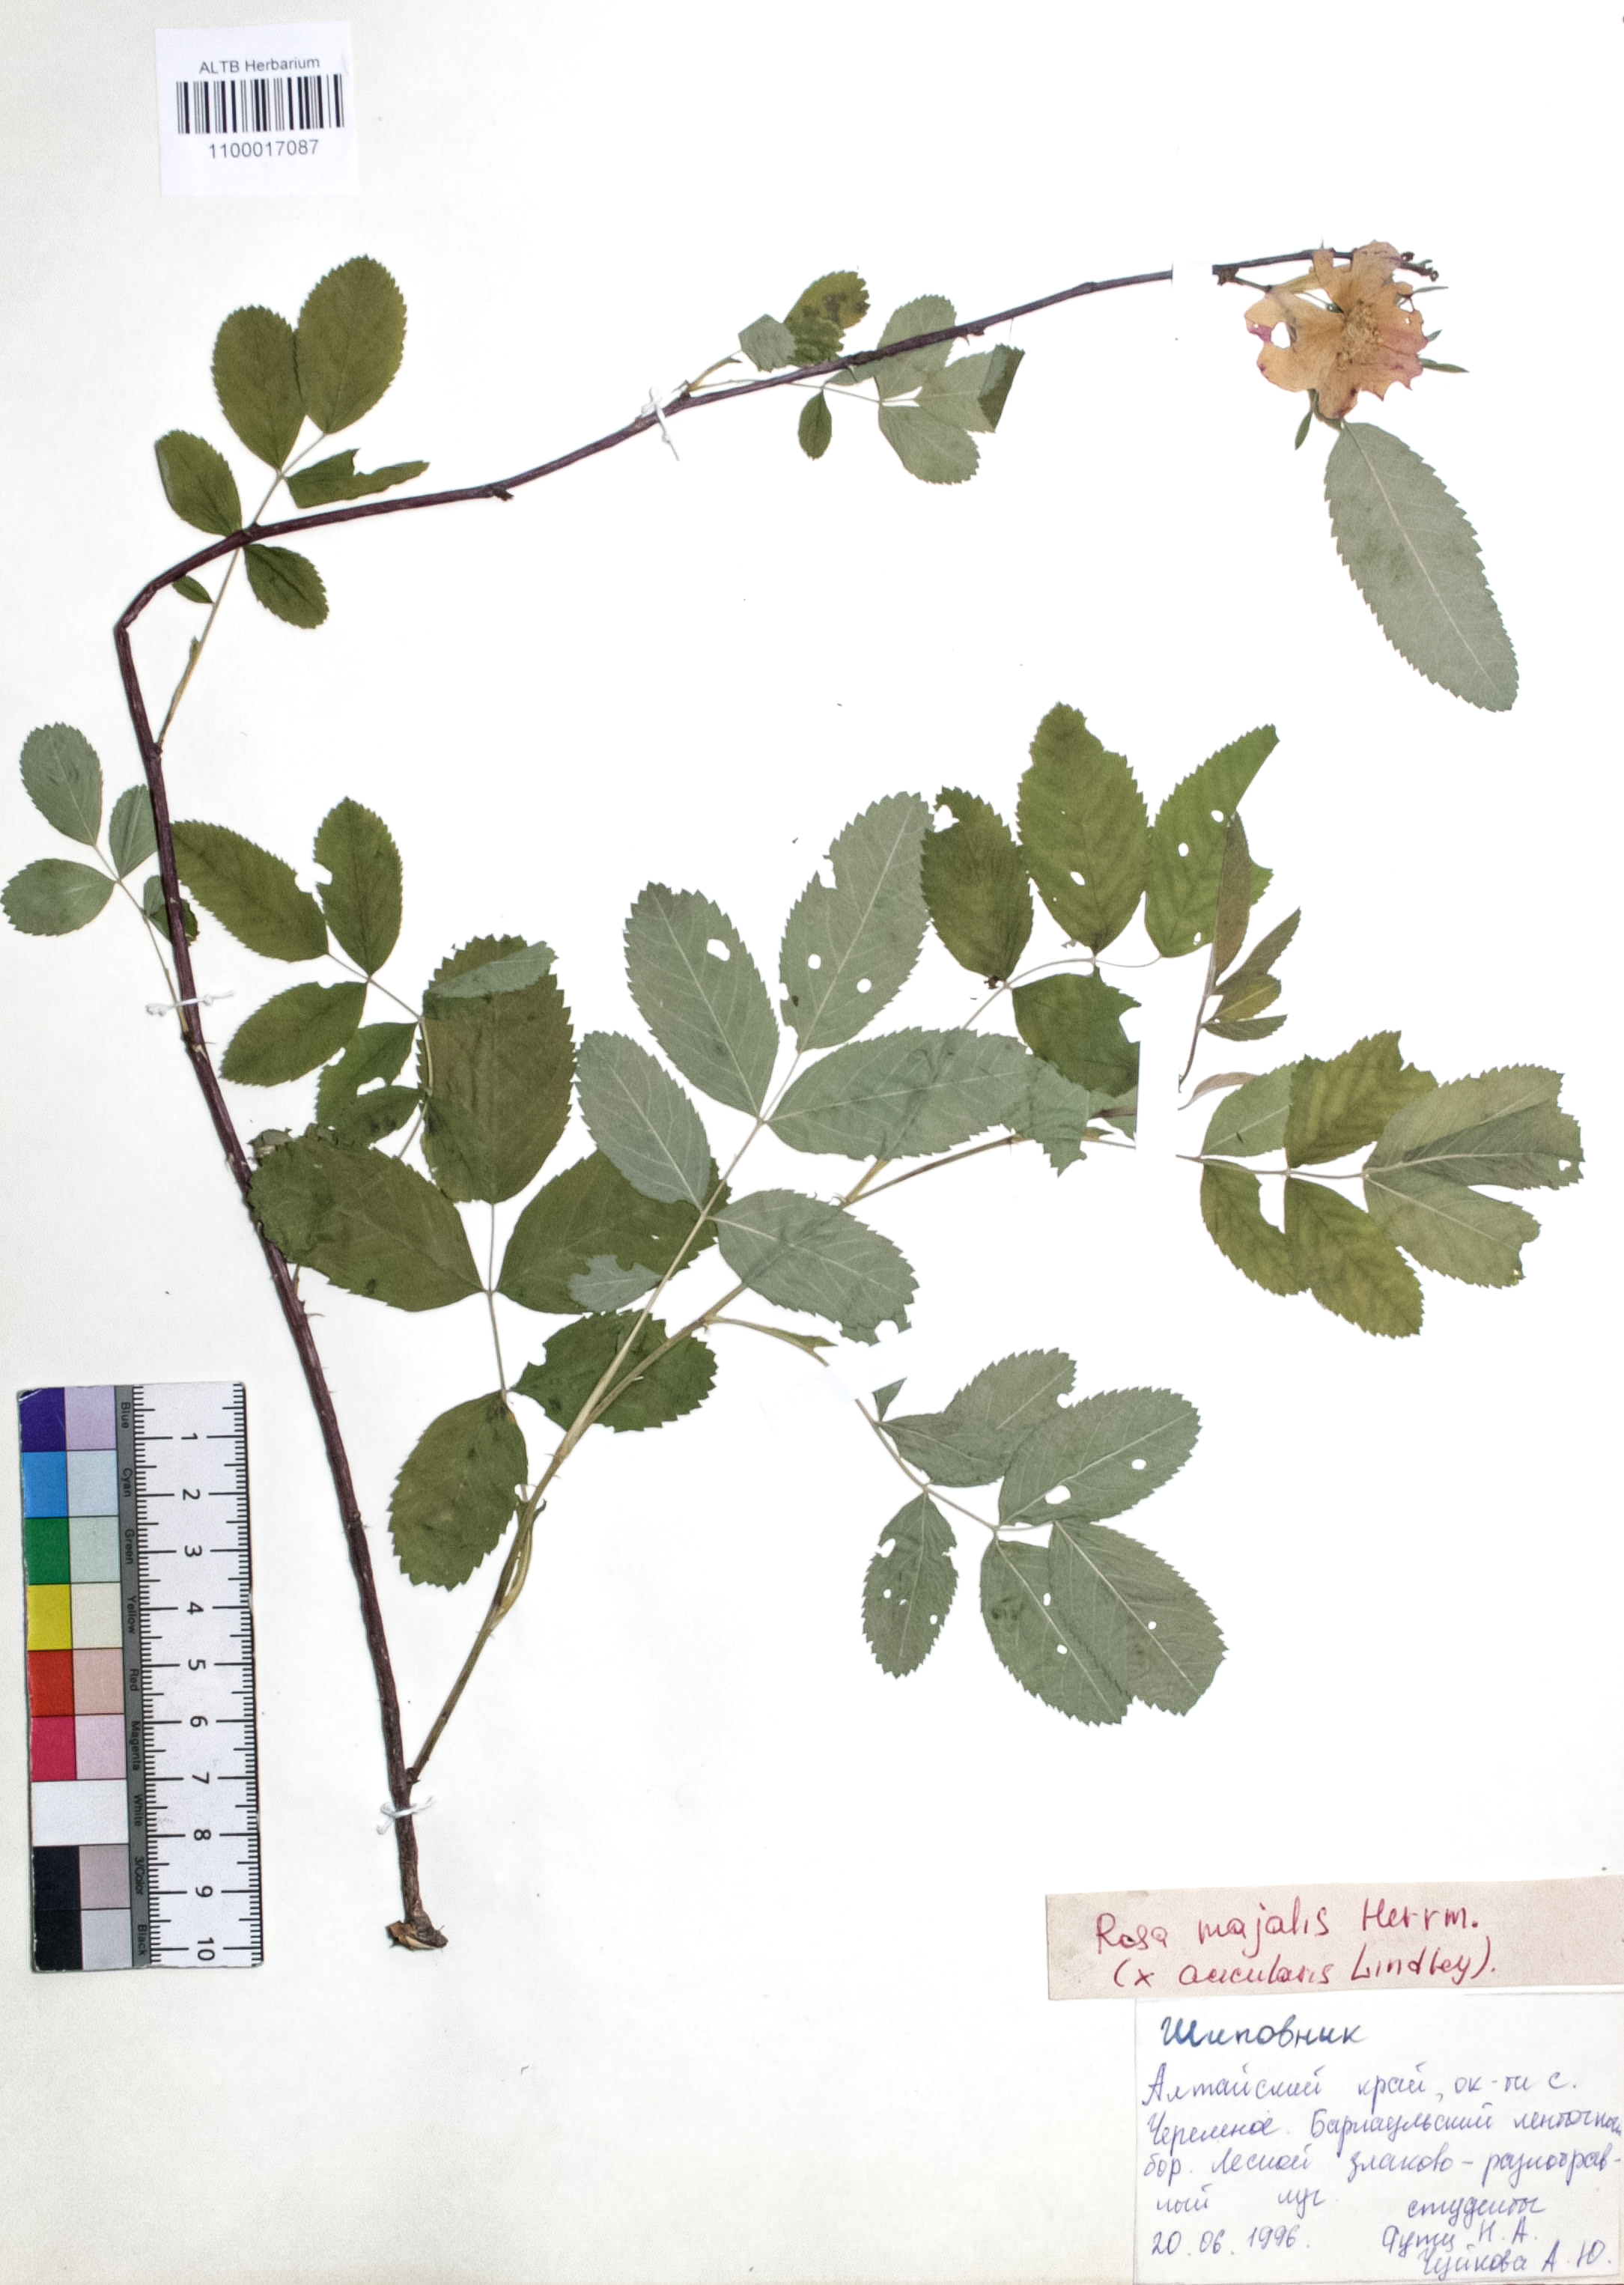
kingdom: Plantae
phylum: Tracheophyta
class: Magnoliopsida
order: Rosales
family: Rosaceae
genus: Rosa
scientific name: Rosa majalis
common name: Cinnamon rose
